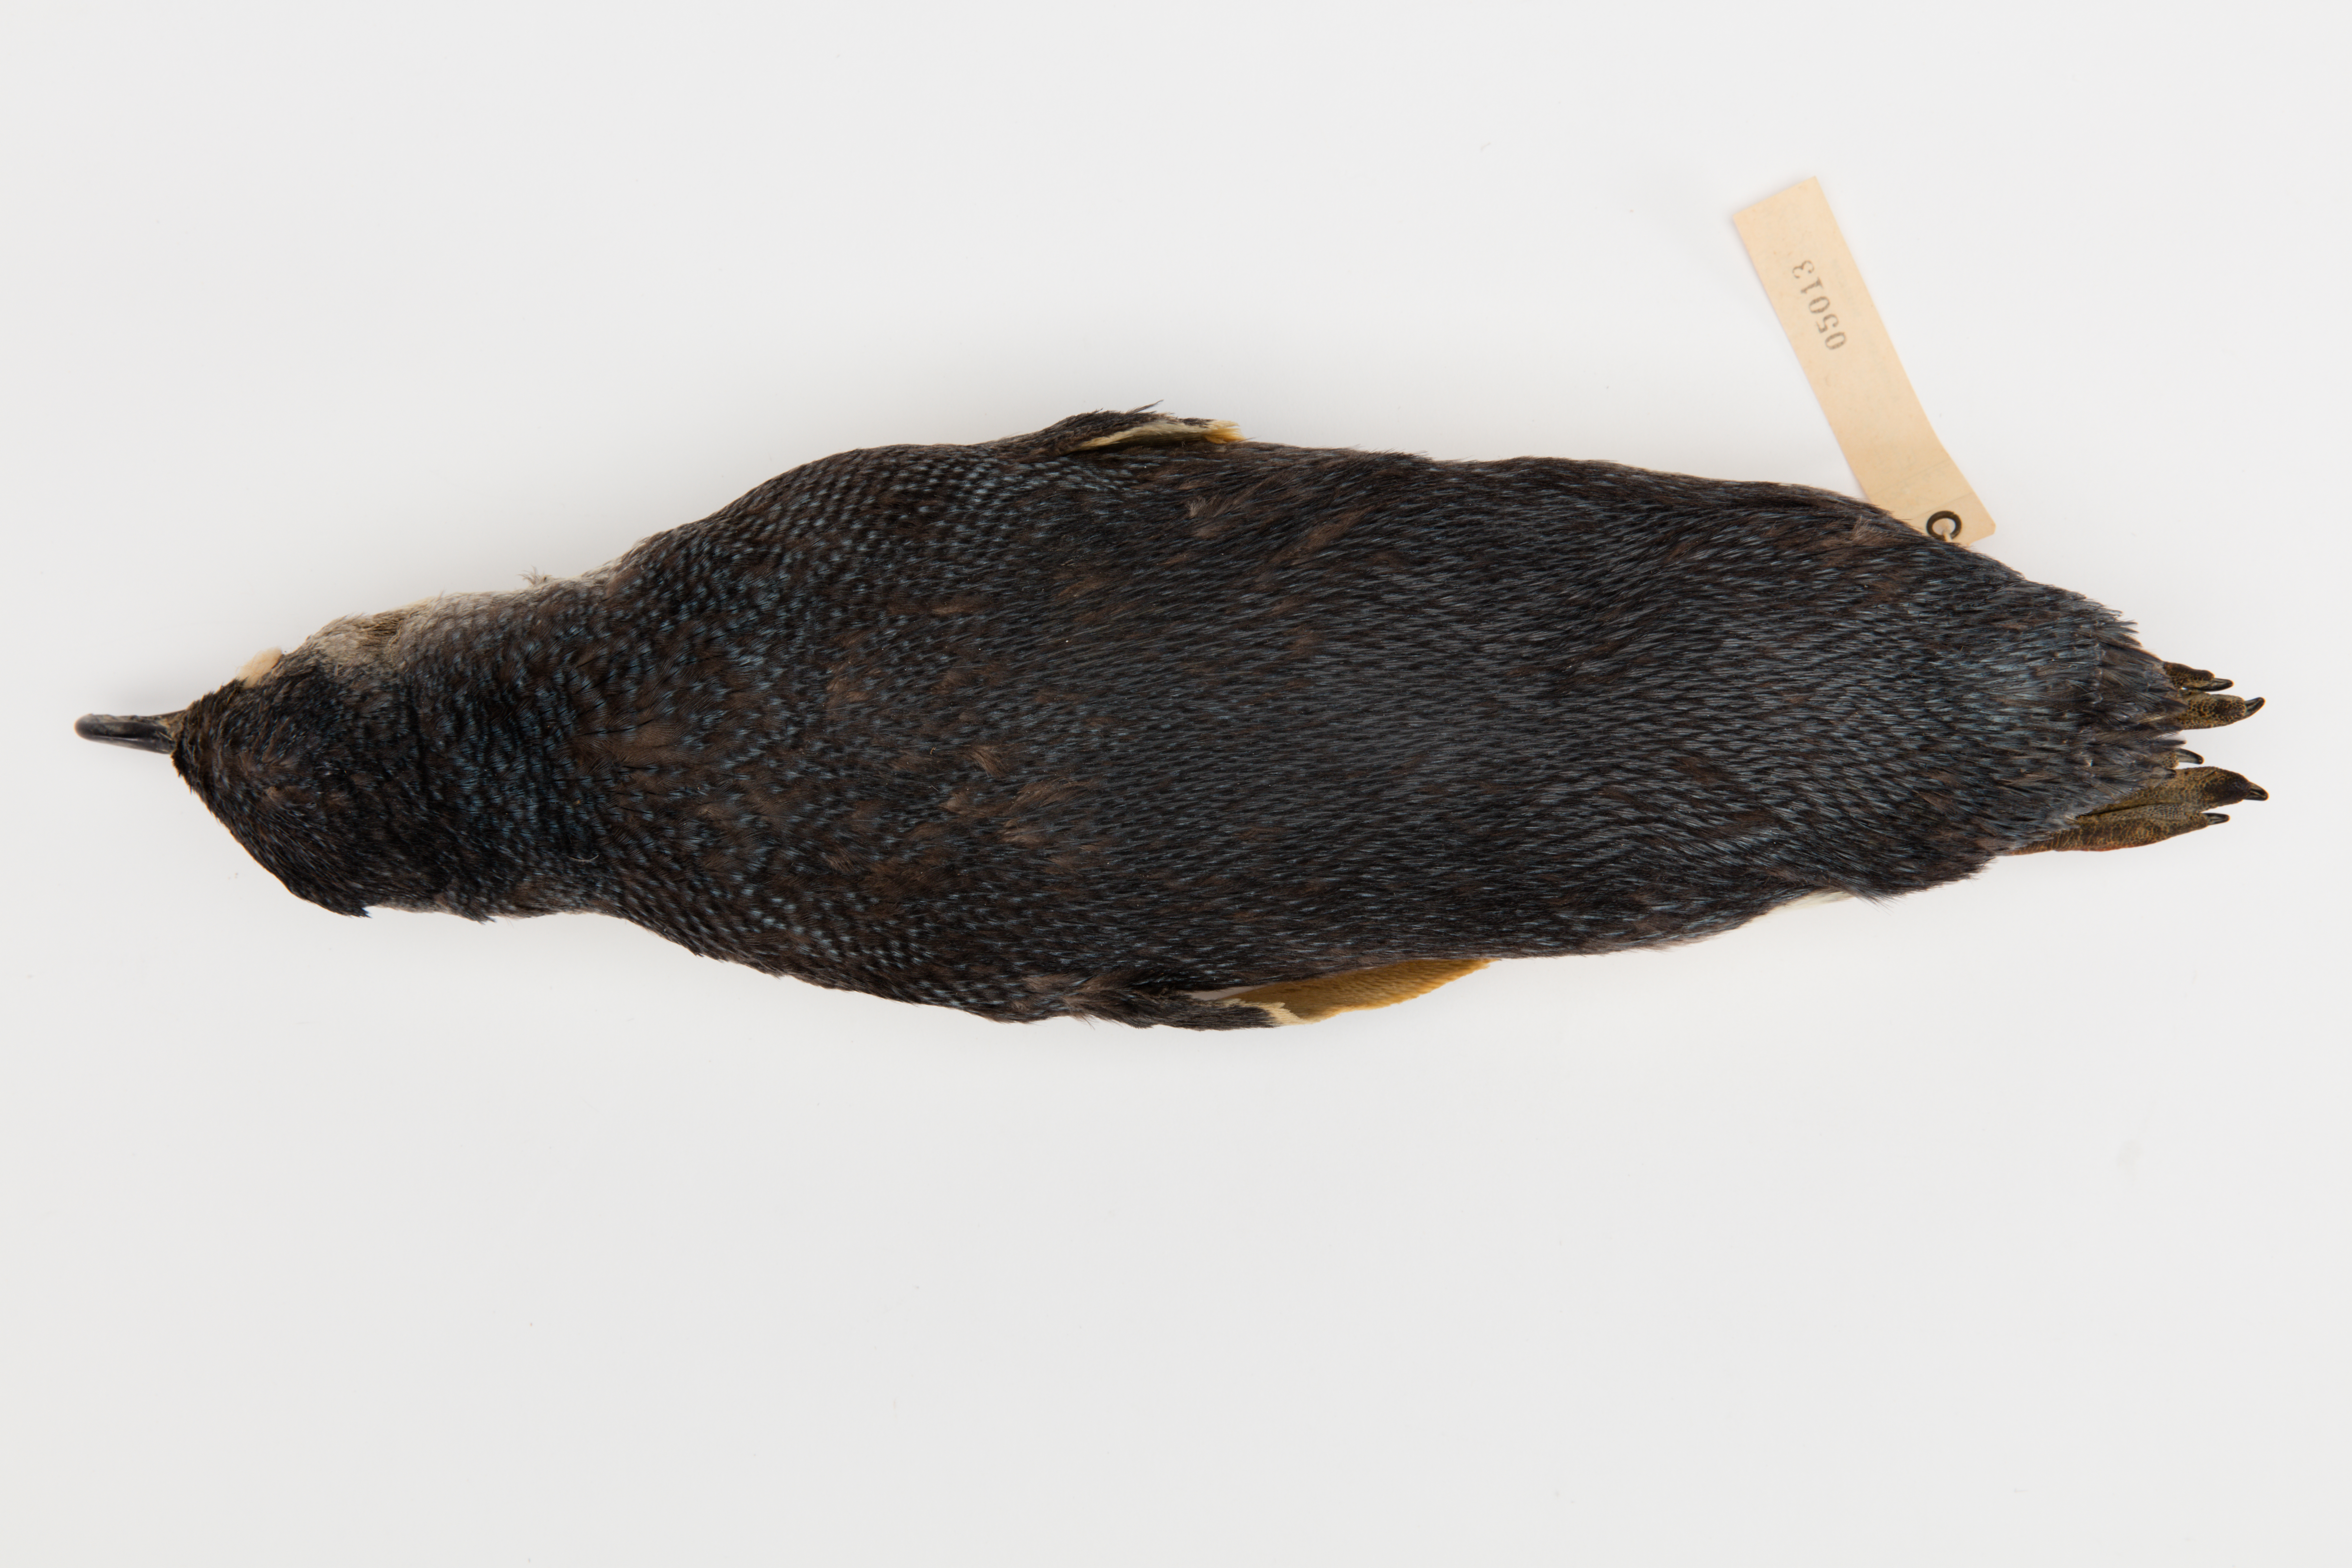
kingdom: Animalia
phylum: Chordata
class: Aves
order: Sphenisciformes
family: Spheniscidae
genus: Eudyptula
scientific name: Eudyptula minor
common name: Little penguin
